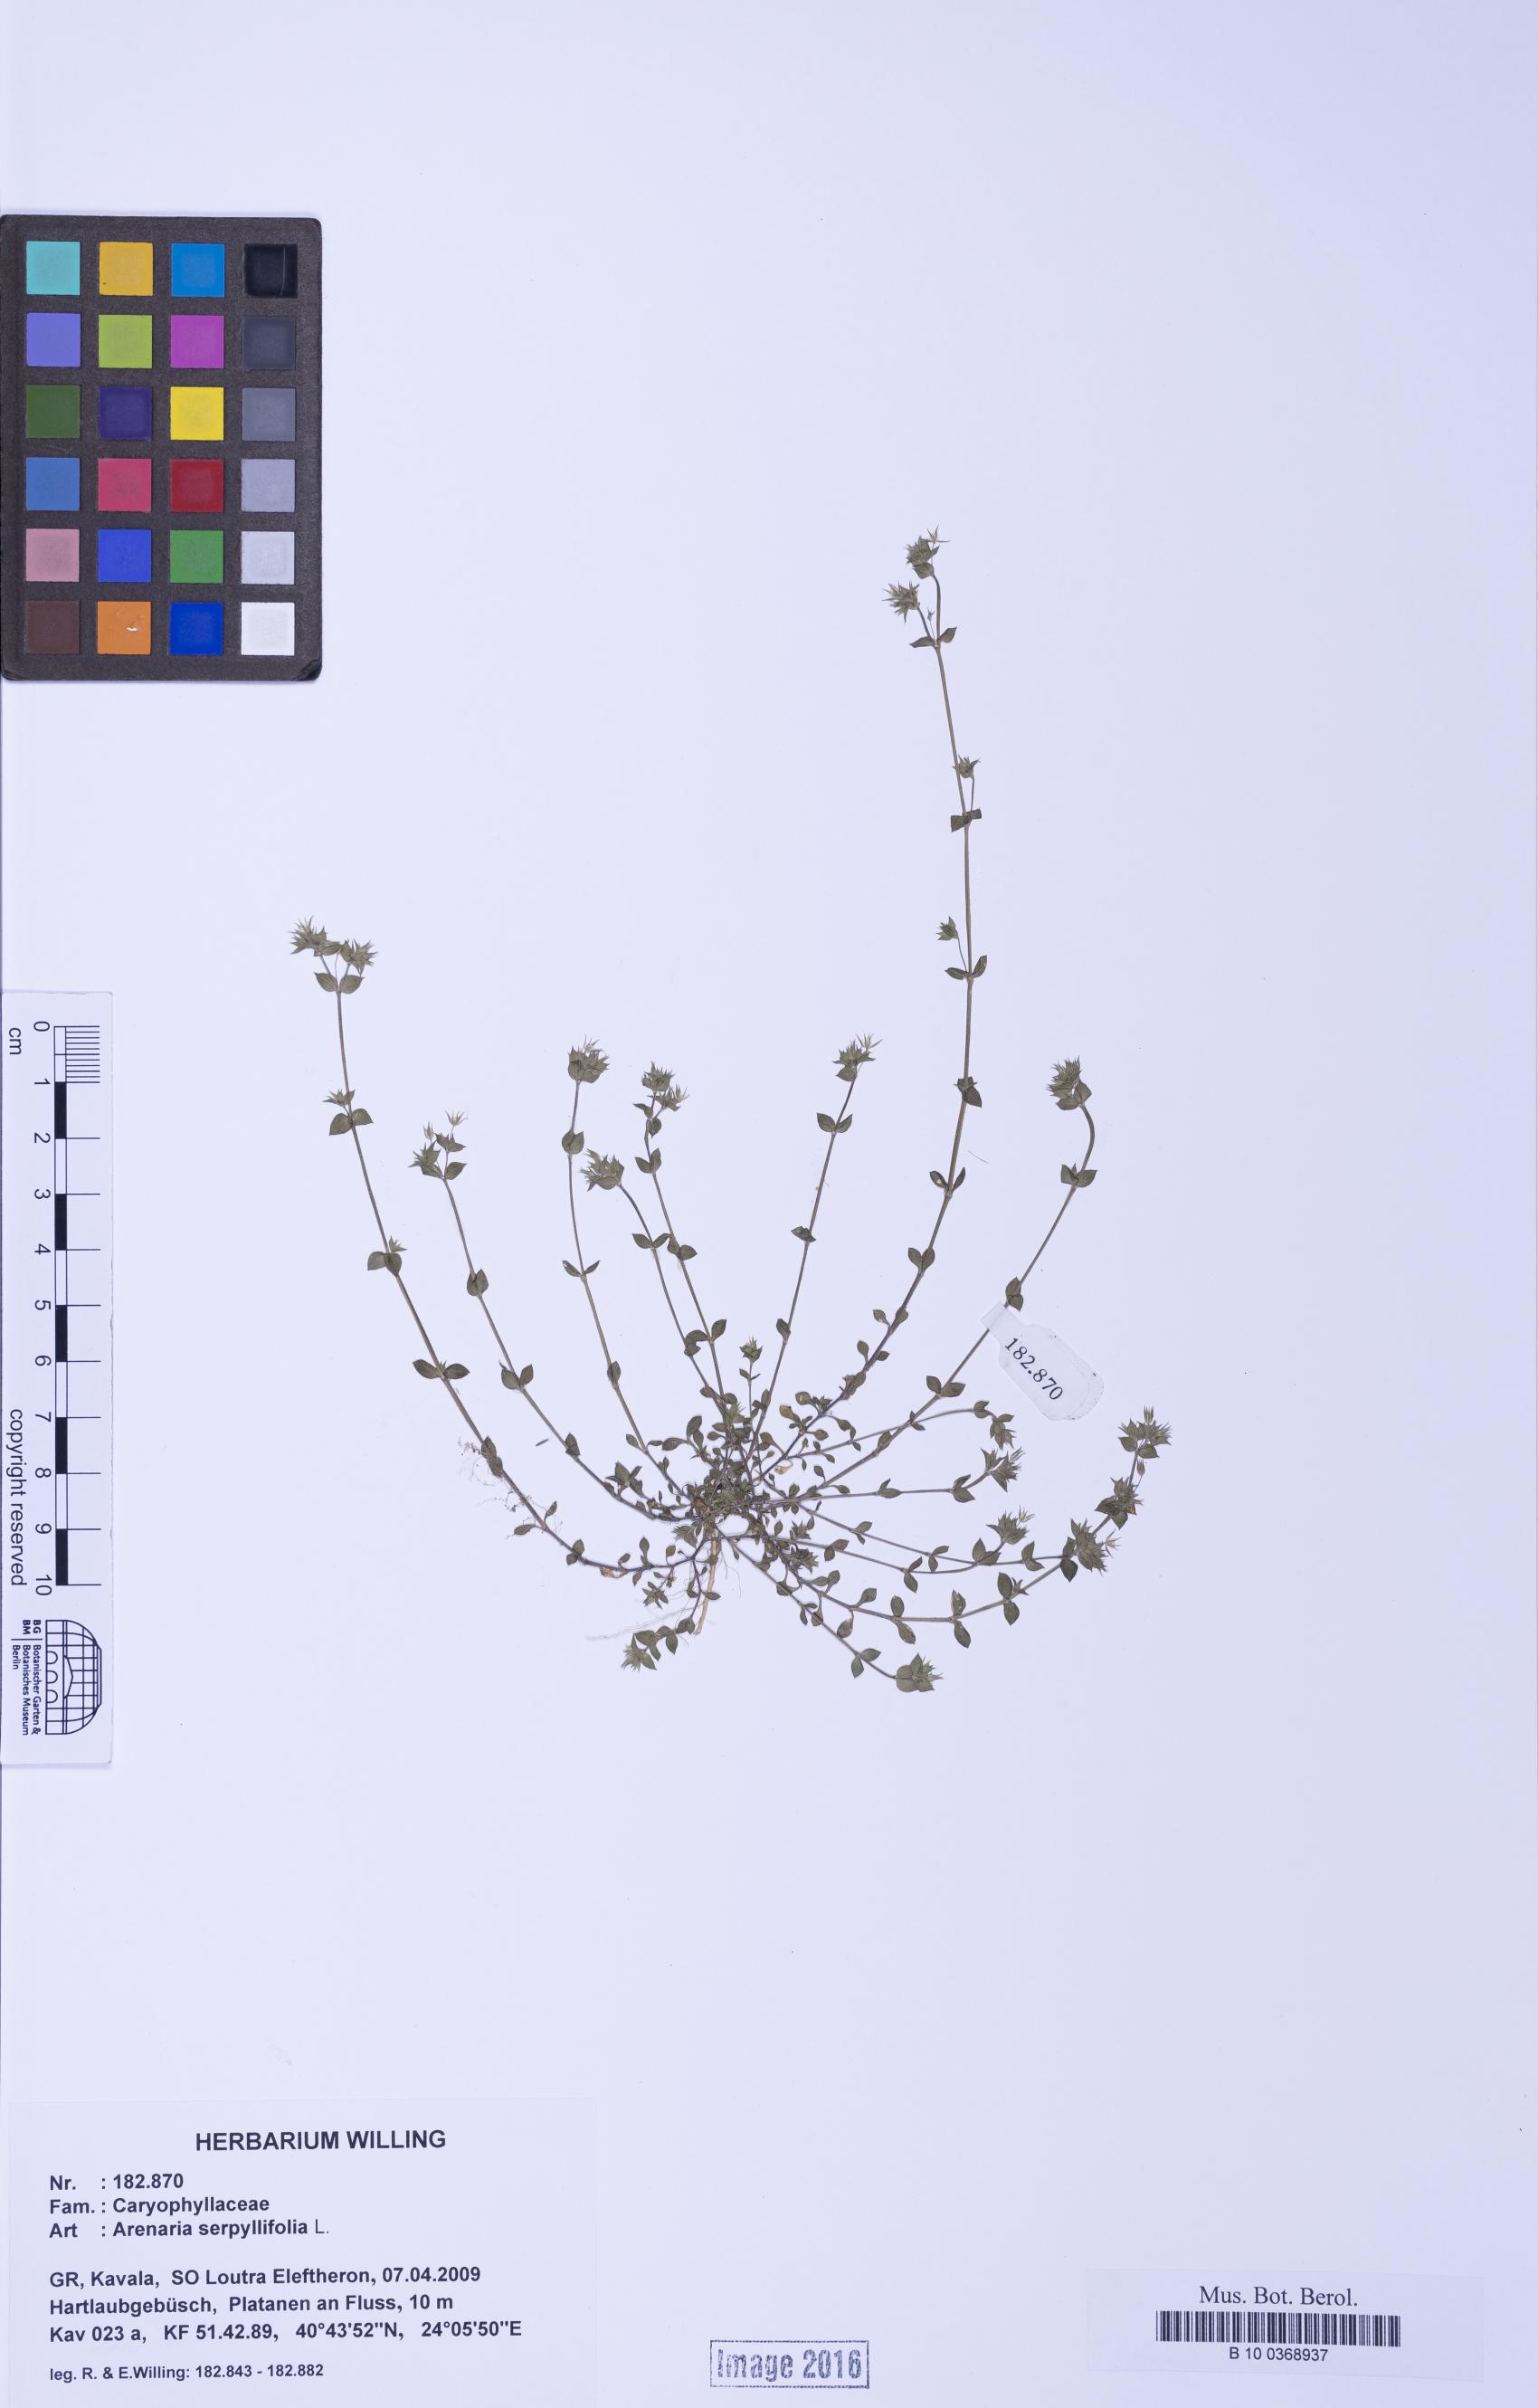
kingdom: Plantae
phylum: Tracheophyta
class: Magnoliopsida
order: Caryophyllales
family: Caryophyllaceae
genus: Arenaria
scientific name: Arenaria serpyllifolia
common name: Thyme-leaved sandwort
